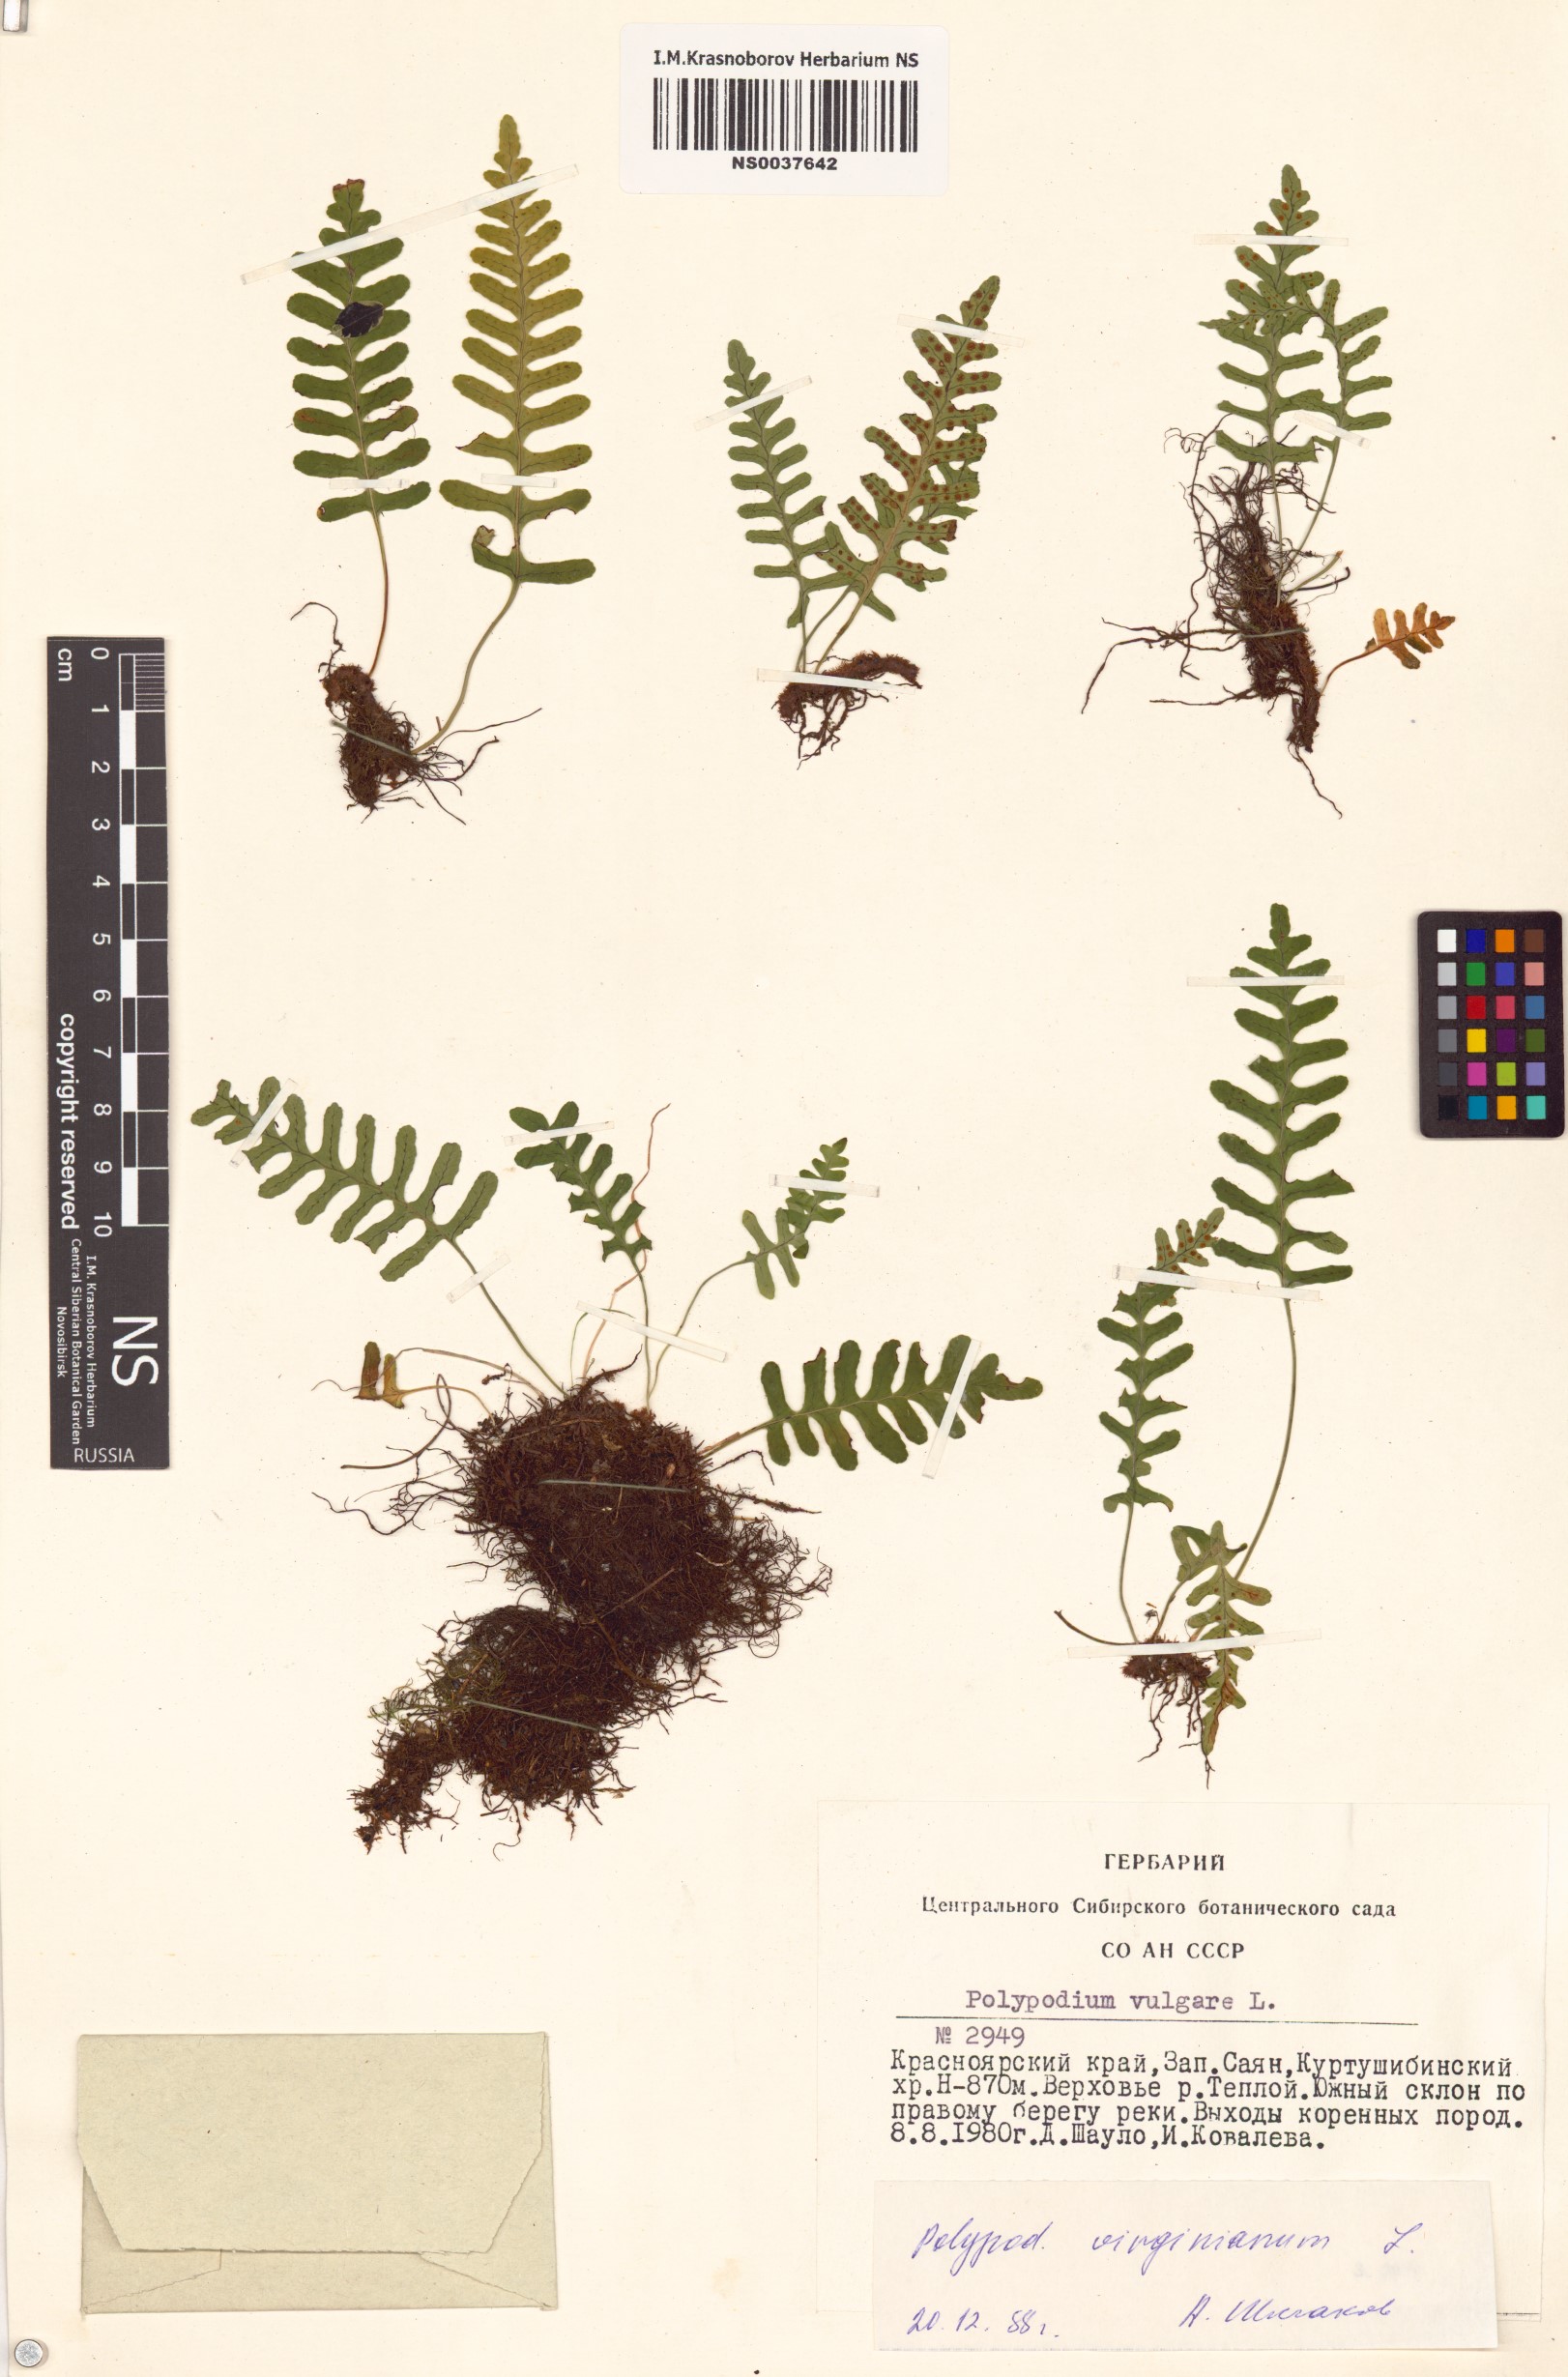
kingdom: Plantae
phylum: Tracheophyta
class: Polypodiopsida
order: Polypodiales
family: Polypodiaceae
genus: Polypodium
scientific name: Polypodium virginianum
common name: American wall fern
